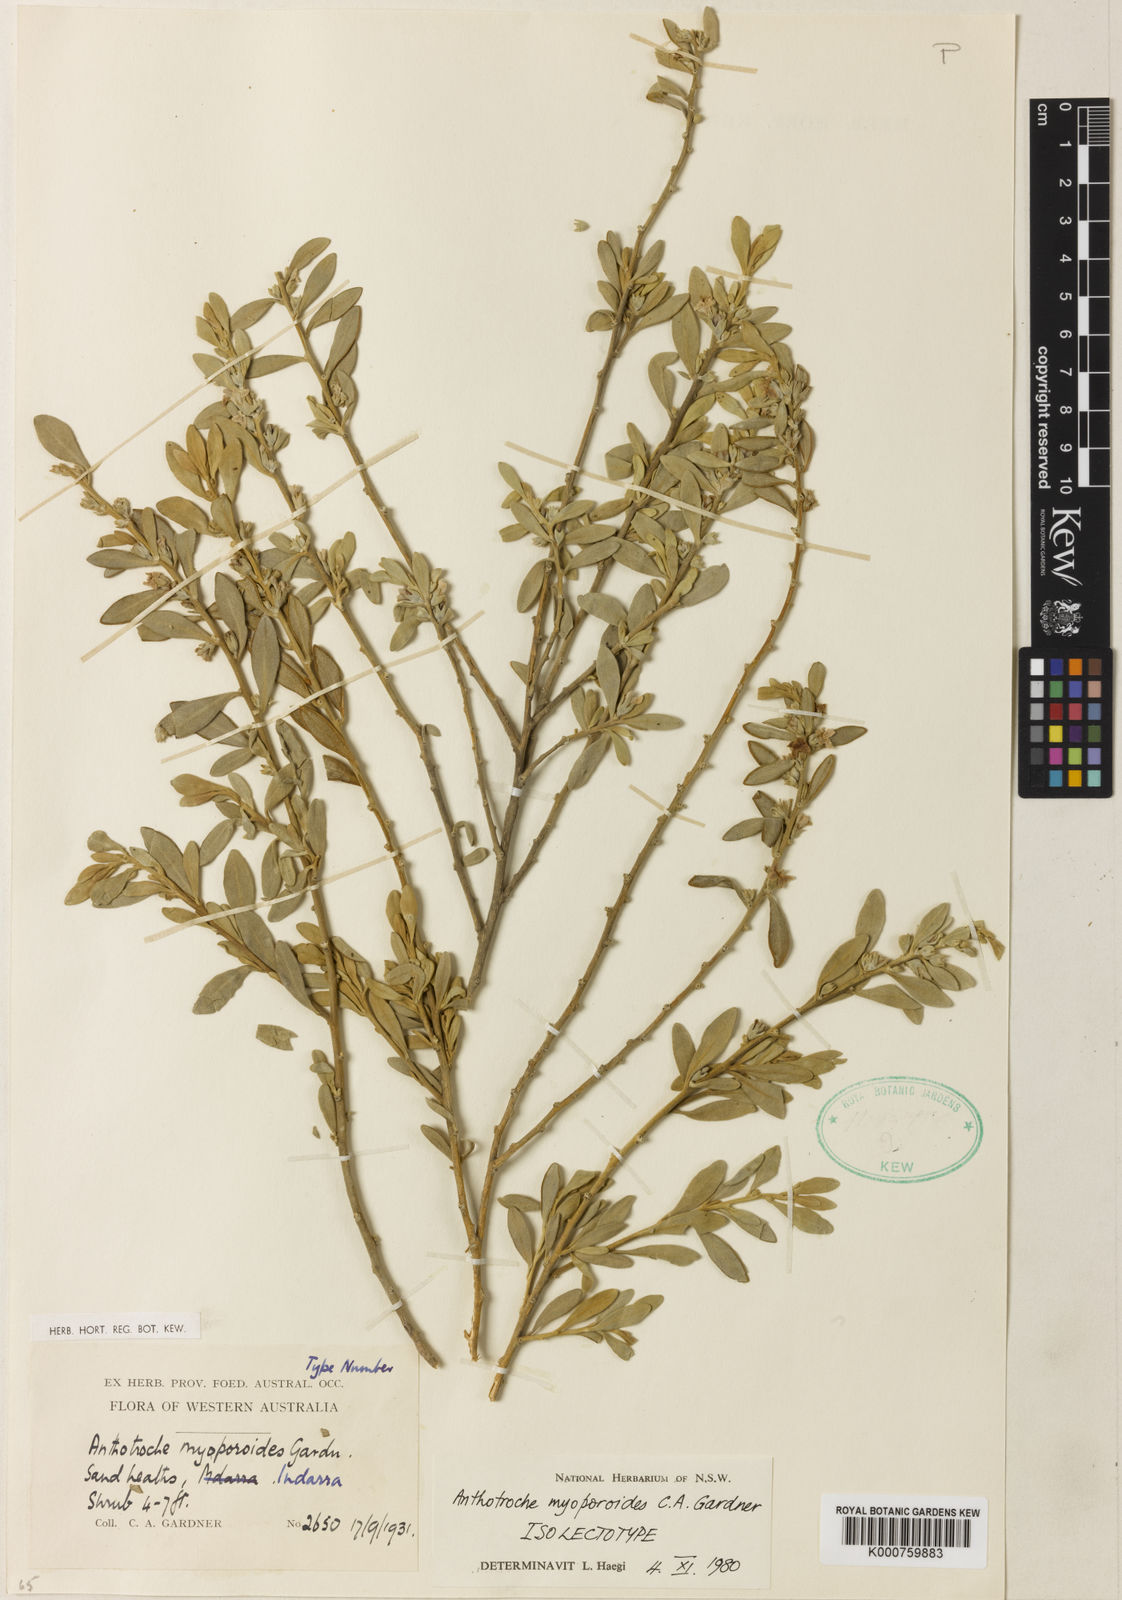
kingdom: Plantae
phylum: Tracheophyta
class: Magnoliopsida
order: Solanales
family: Solanaceae
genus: Anthotroche
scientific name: Anthotroche myoporoides
